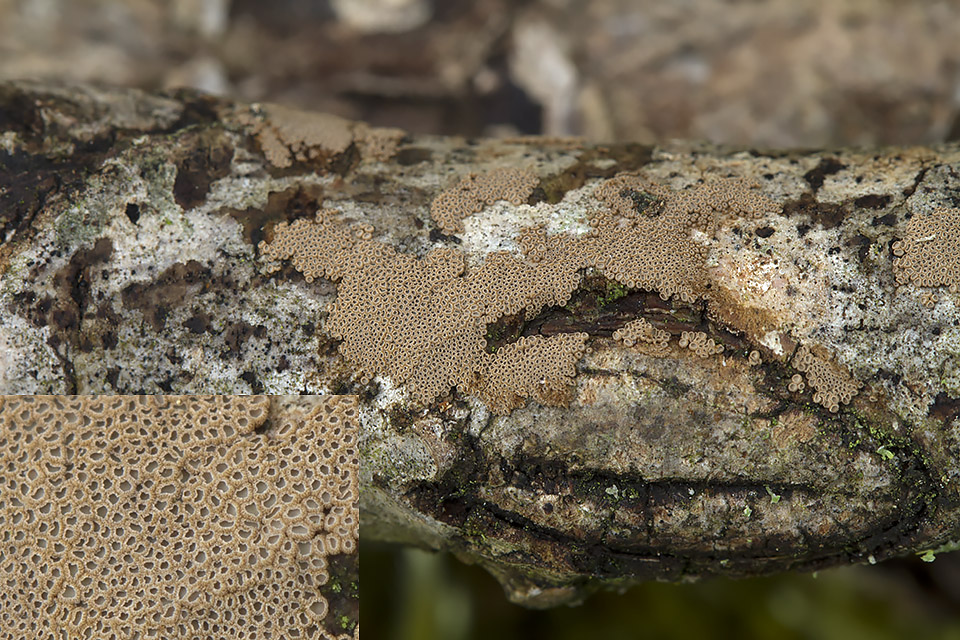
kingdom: Fungi
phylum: Basidiomycota
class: Agaricomycetes
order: Agaricales
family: Niaceae
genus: Merismodes
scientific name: Merismodes anomala
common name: almindelig læderskål
